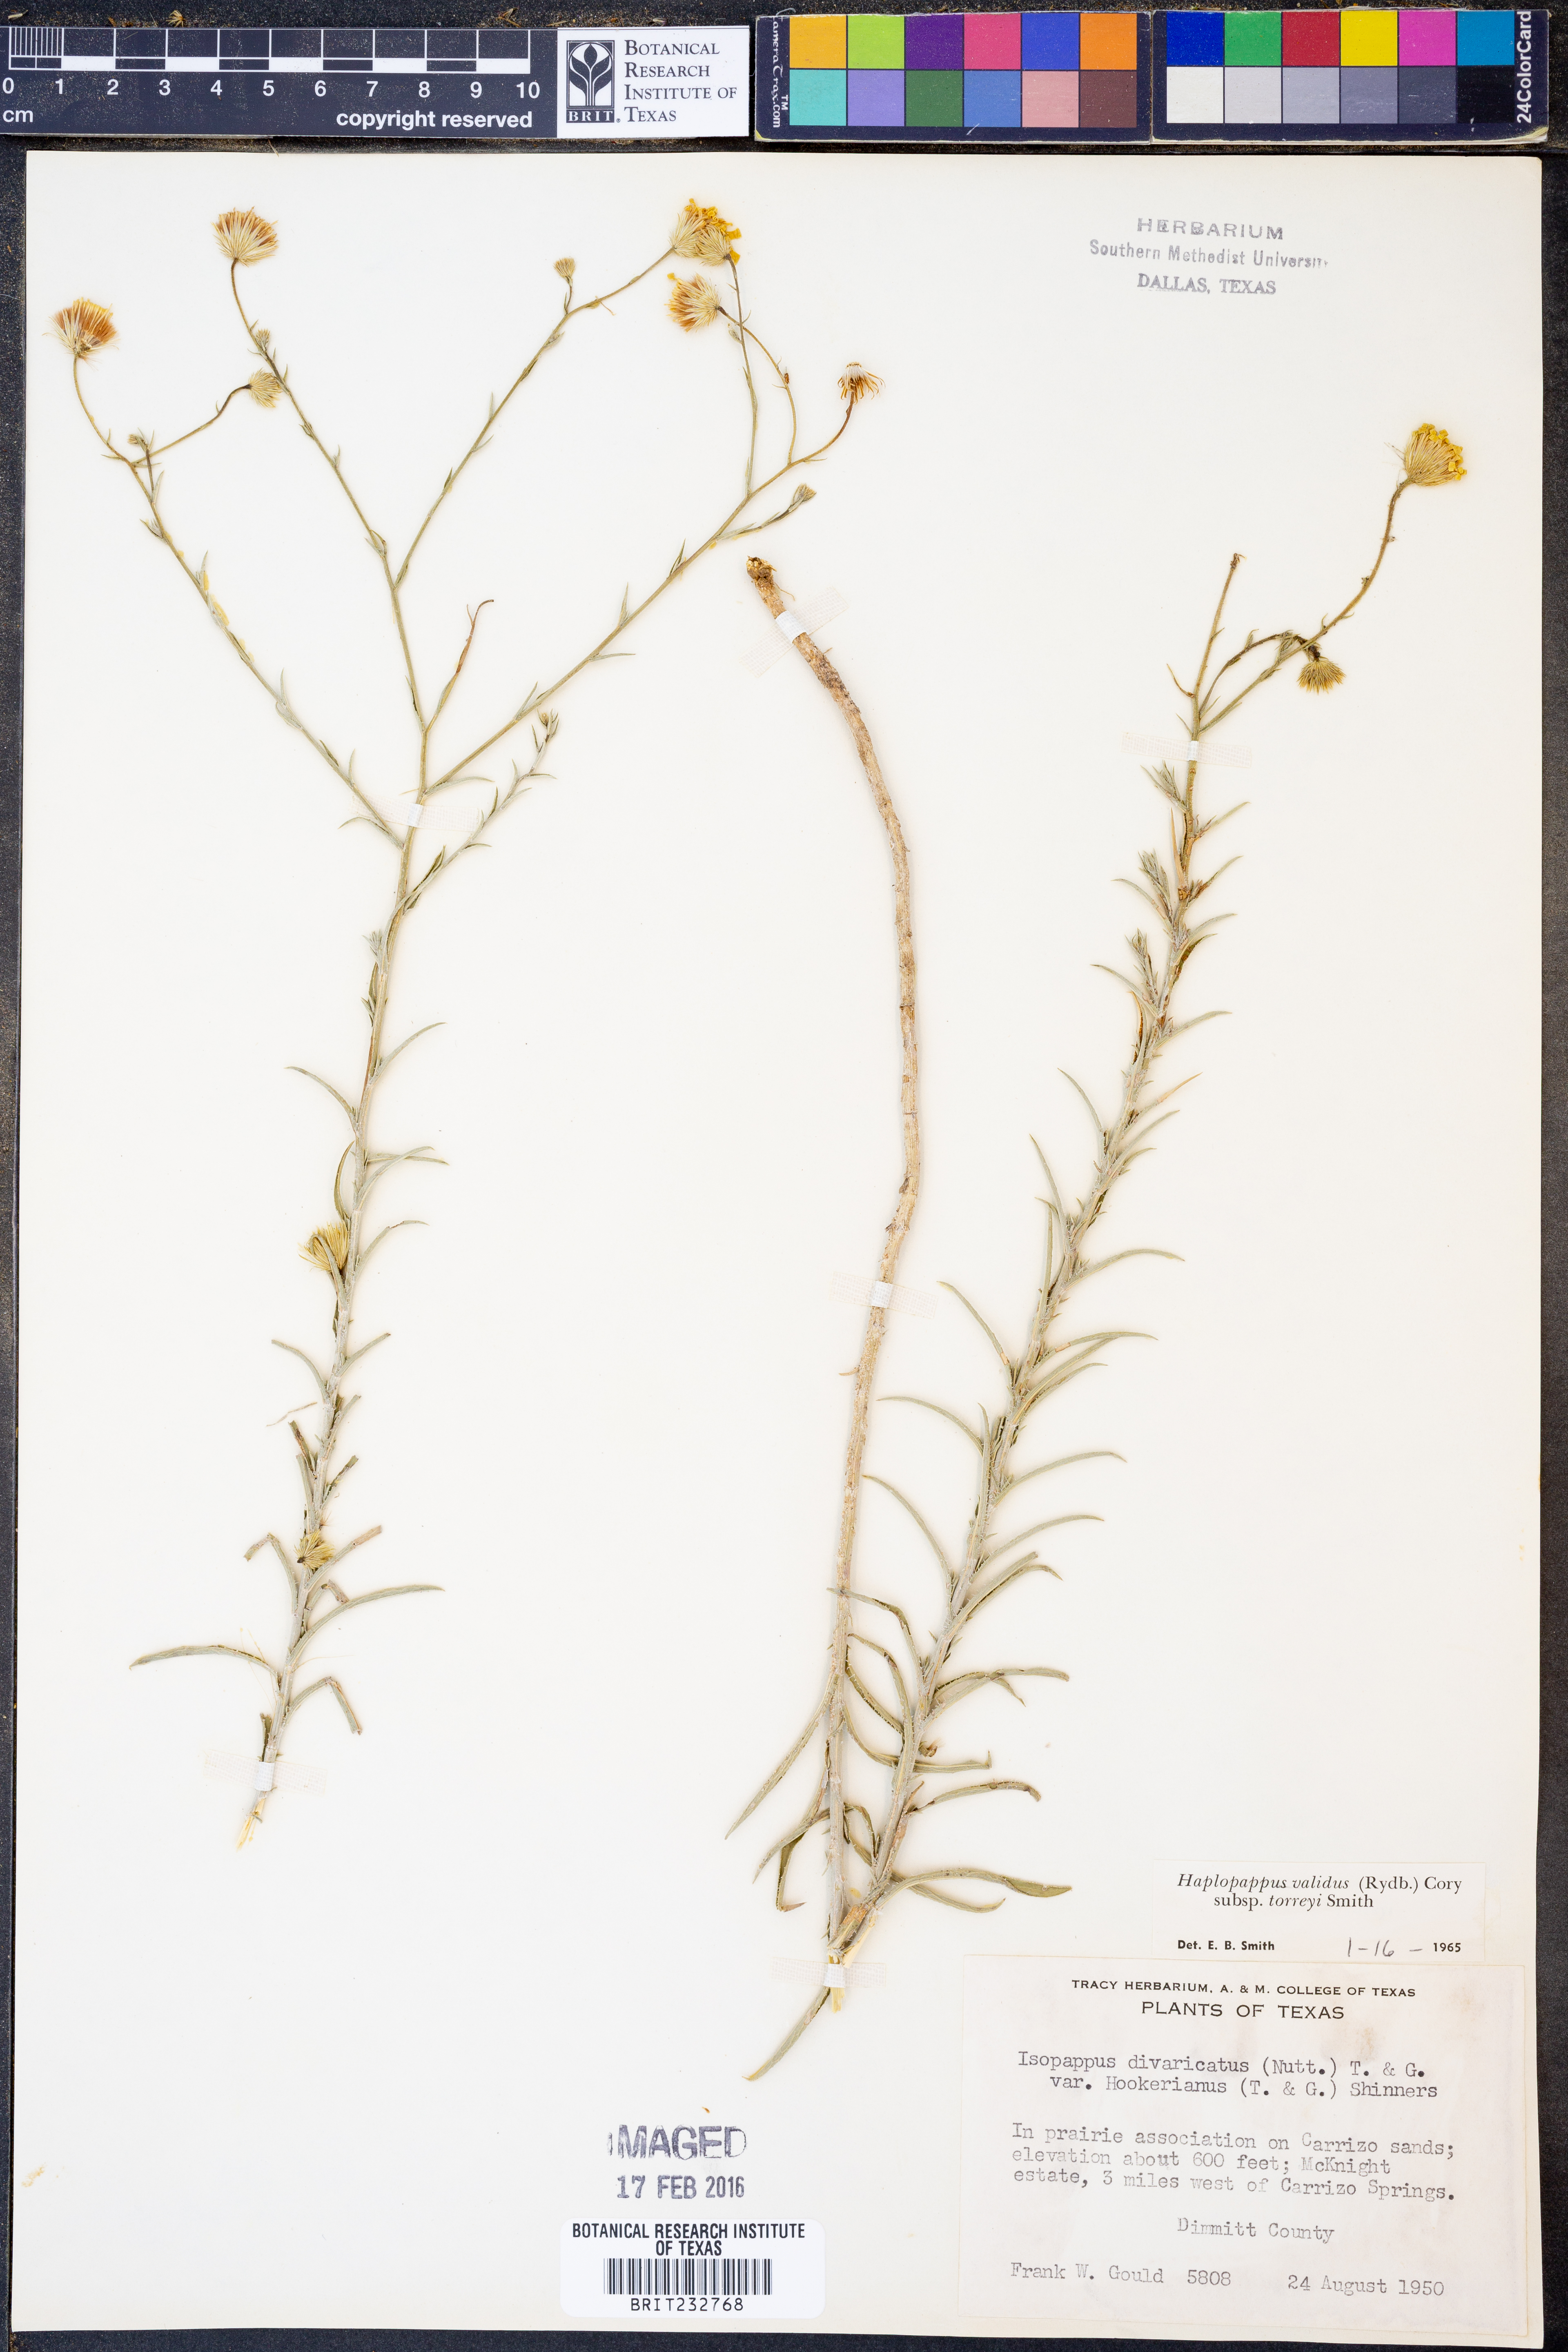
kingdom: Plantae
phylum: Tracheophyta
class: Magnoliopsida
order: Asterales
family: Asteraceae
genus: Croptilon
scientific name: Croptilon hookerianum
